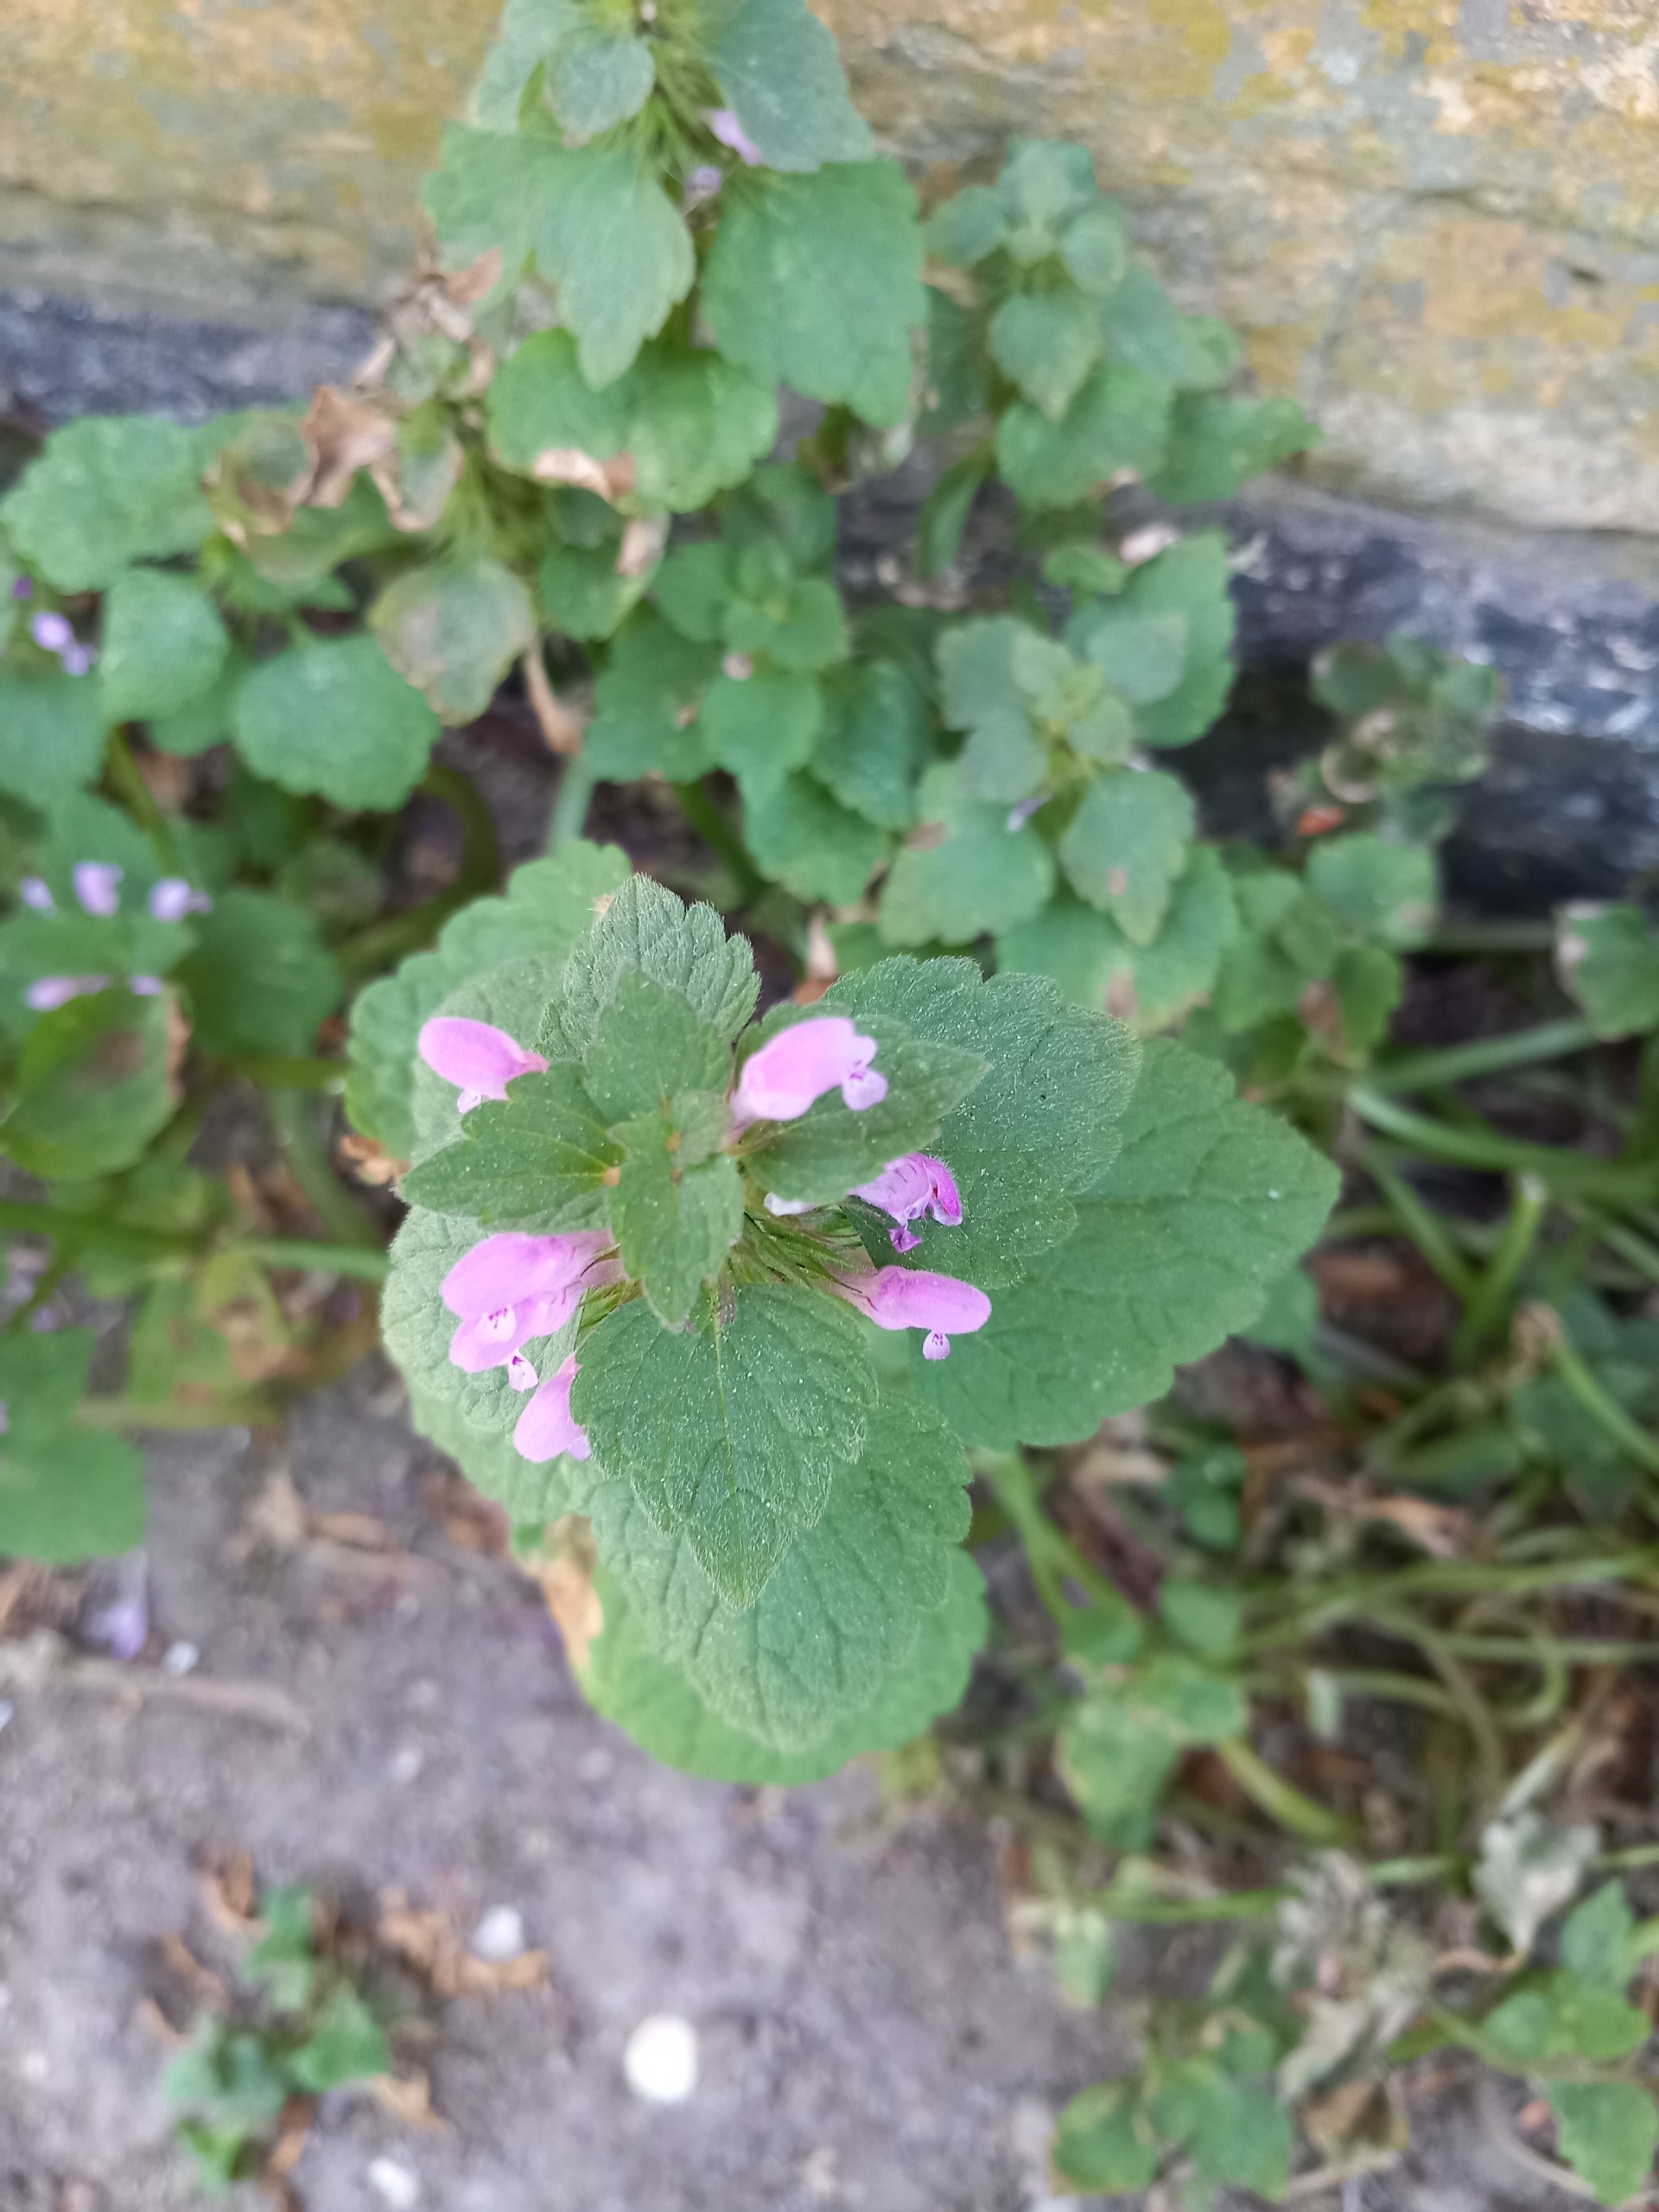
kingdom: Plantae
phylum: Tracheophyta
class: Magnoliopsida
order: Lamiales
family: Lamiaceae
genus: Lamium
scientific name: Lamium purpureum
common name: Rød tvetand
